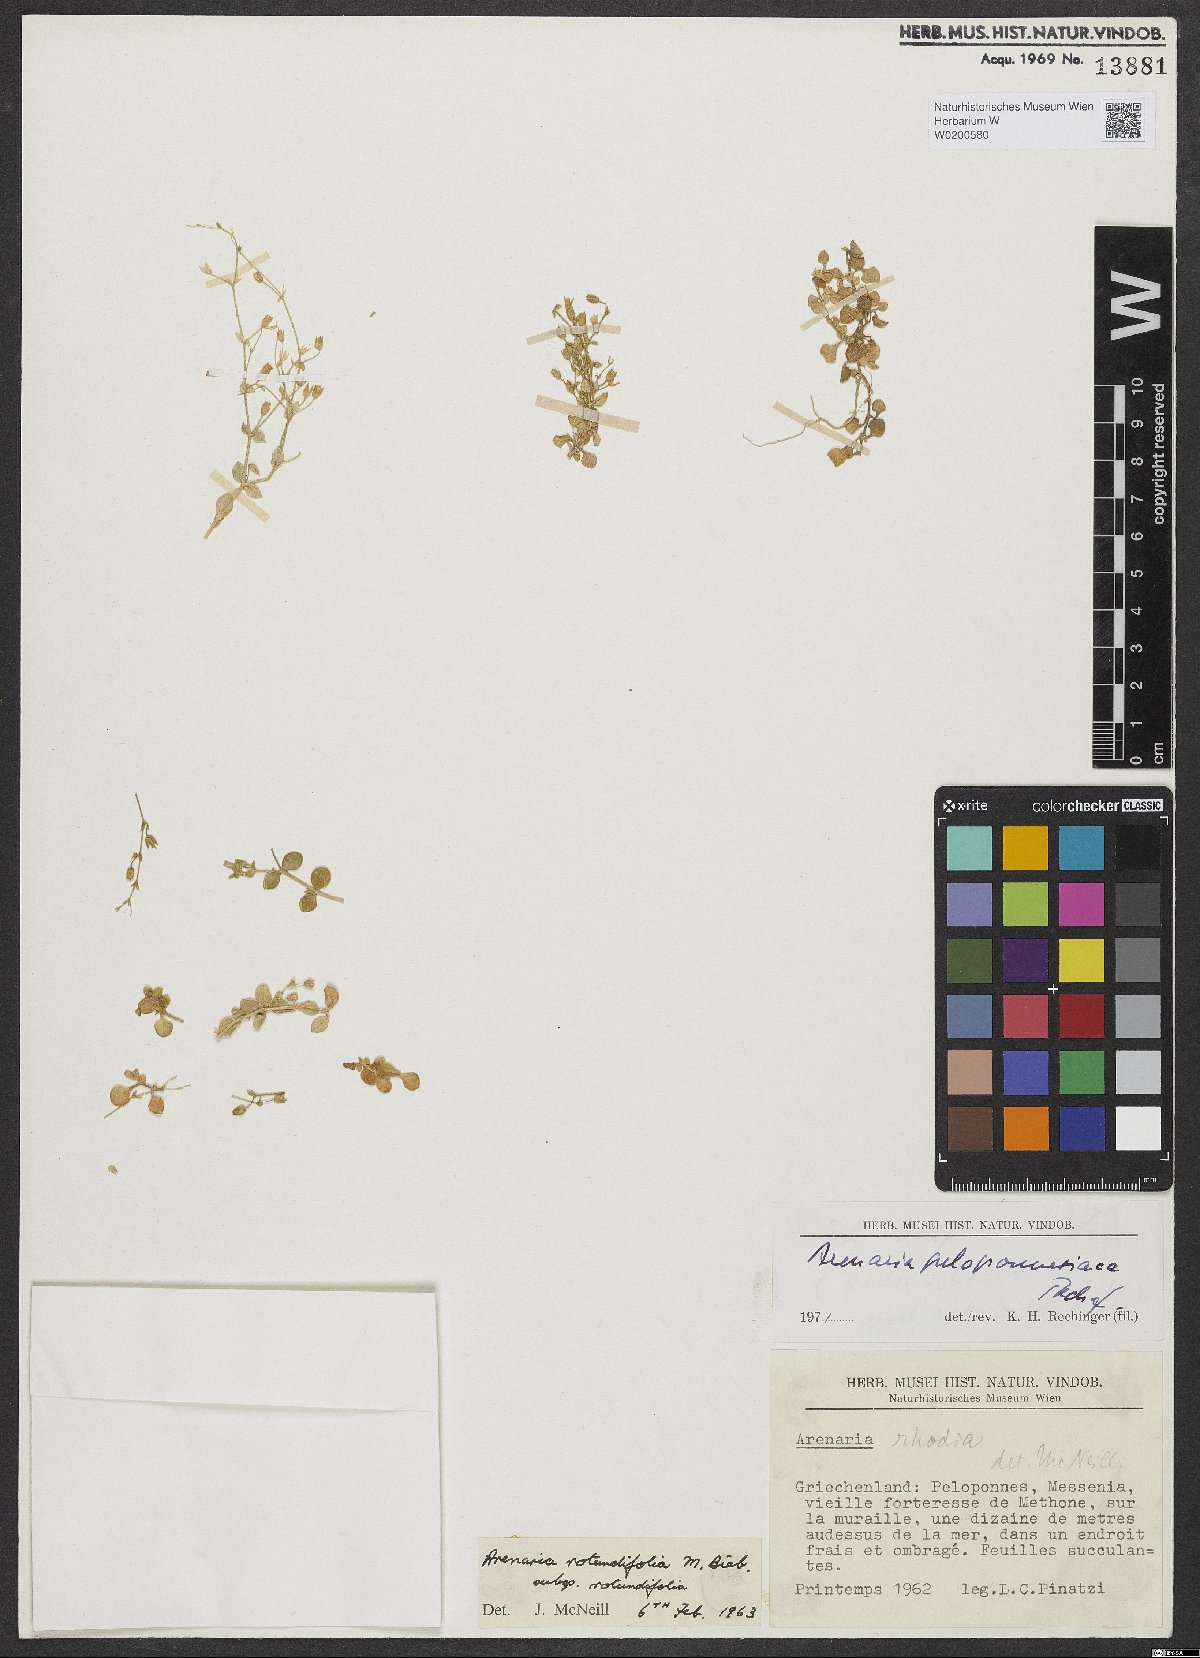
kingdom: Plantae
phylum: Tracheophyta
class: Magnoliopsida
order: Caryophyllales
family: Caryophyllaceae
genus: Arenaria
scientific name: Arenaria leptoclados
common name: Thyme-leaved sandwort
